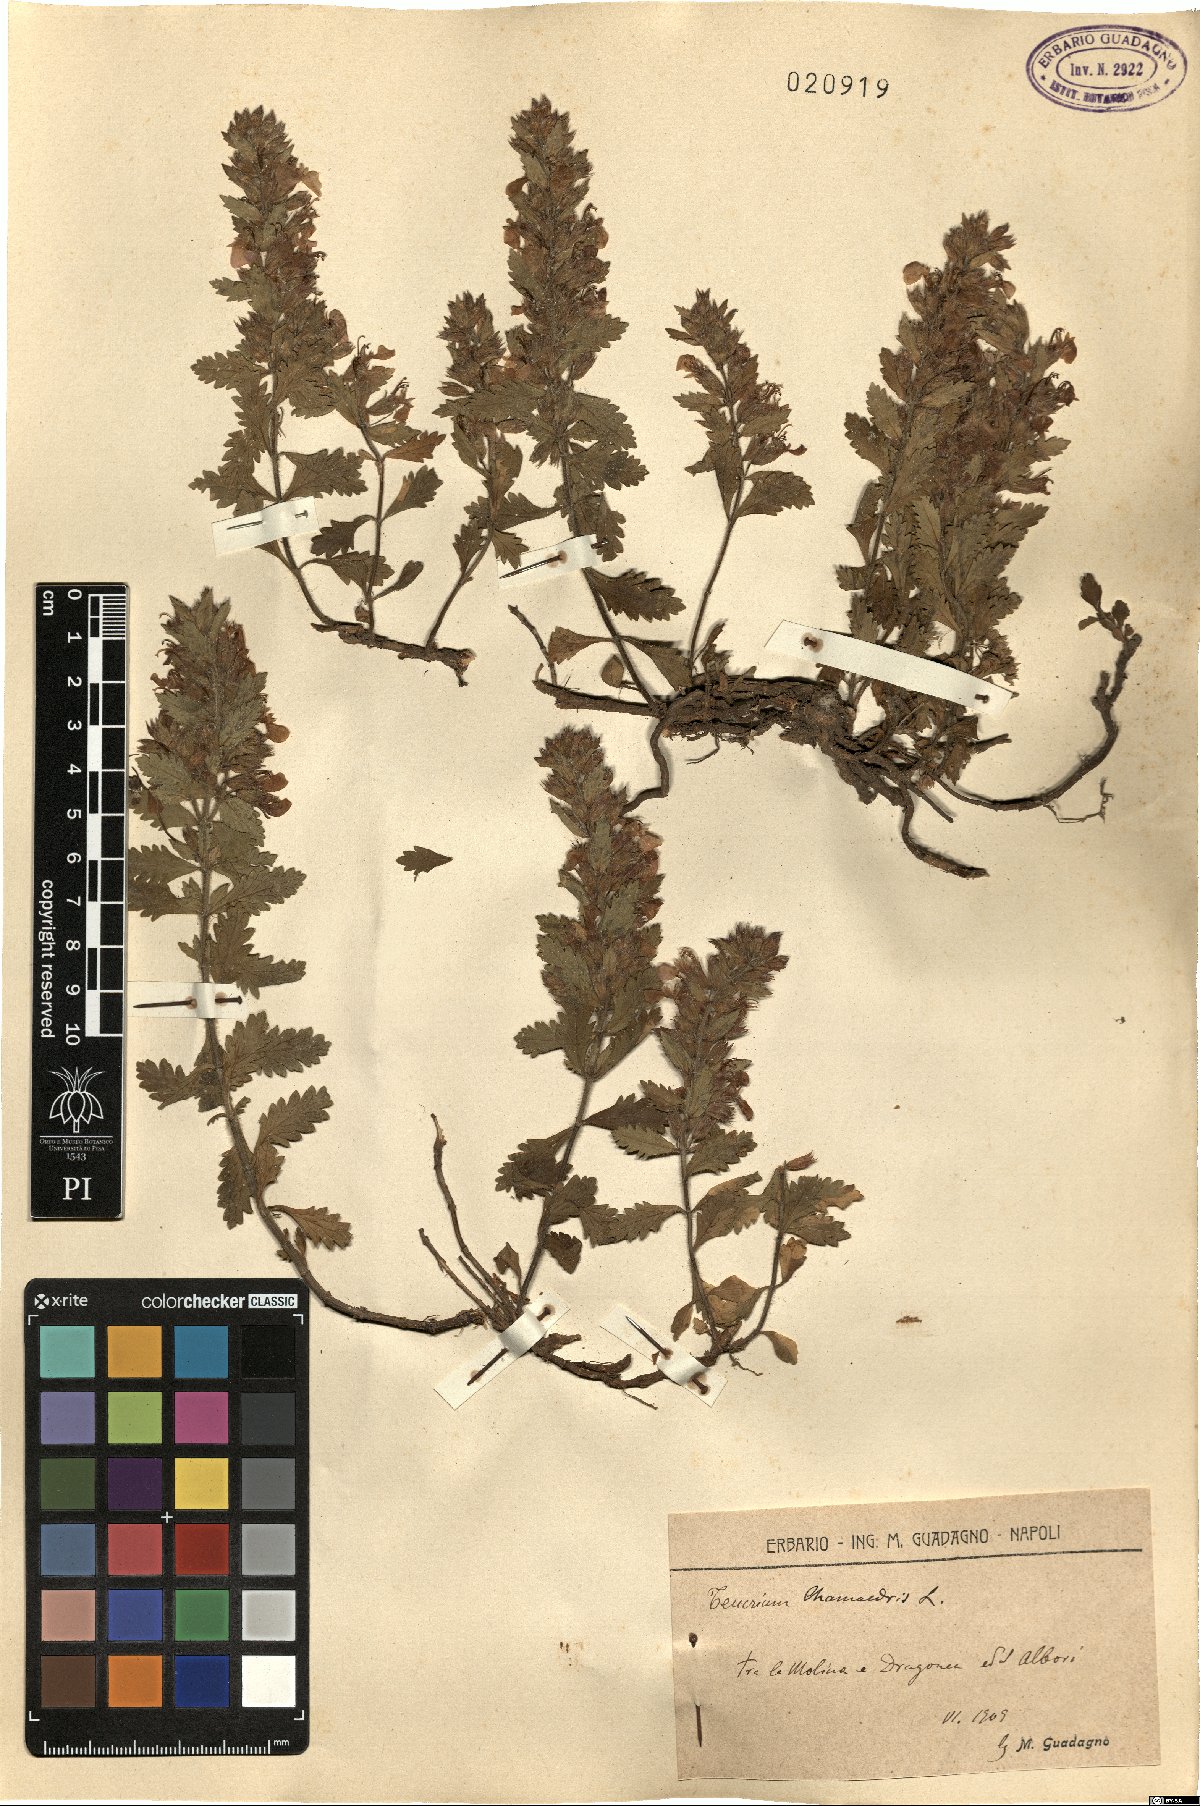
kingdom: Plantae
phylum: Tracheophyta
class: Magnoliopsida
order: Lamiales
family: Lamiaceae
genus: Teucrium
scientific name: Teucrium chamaedrys
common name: Wall germander
